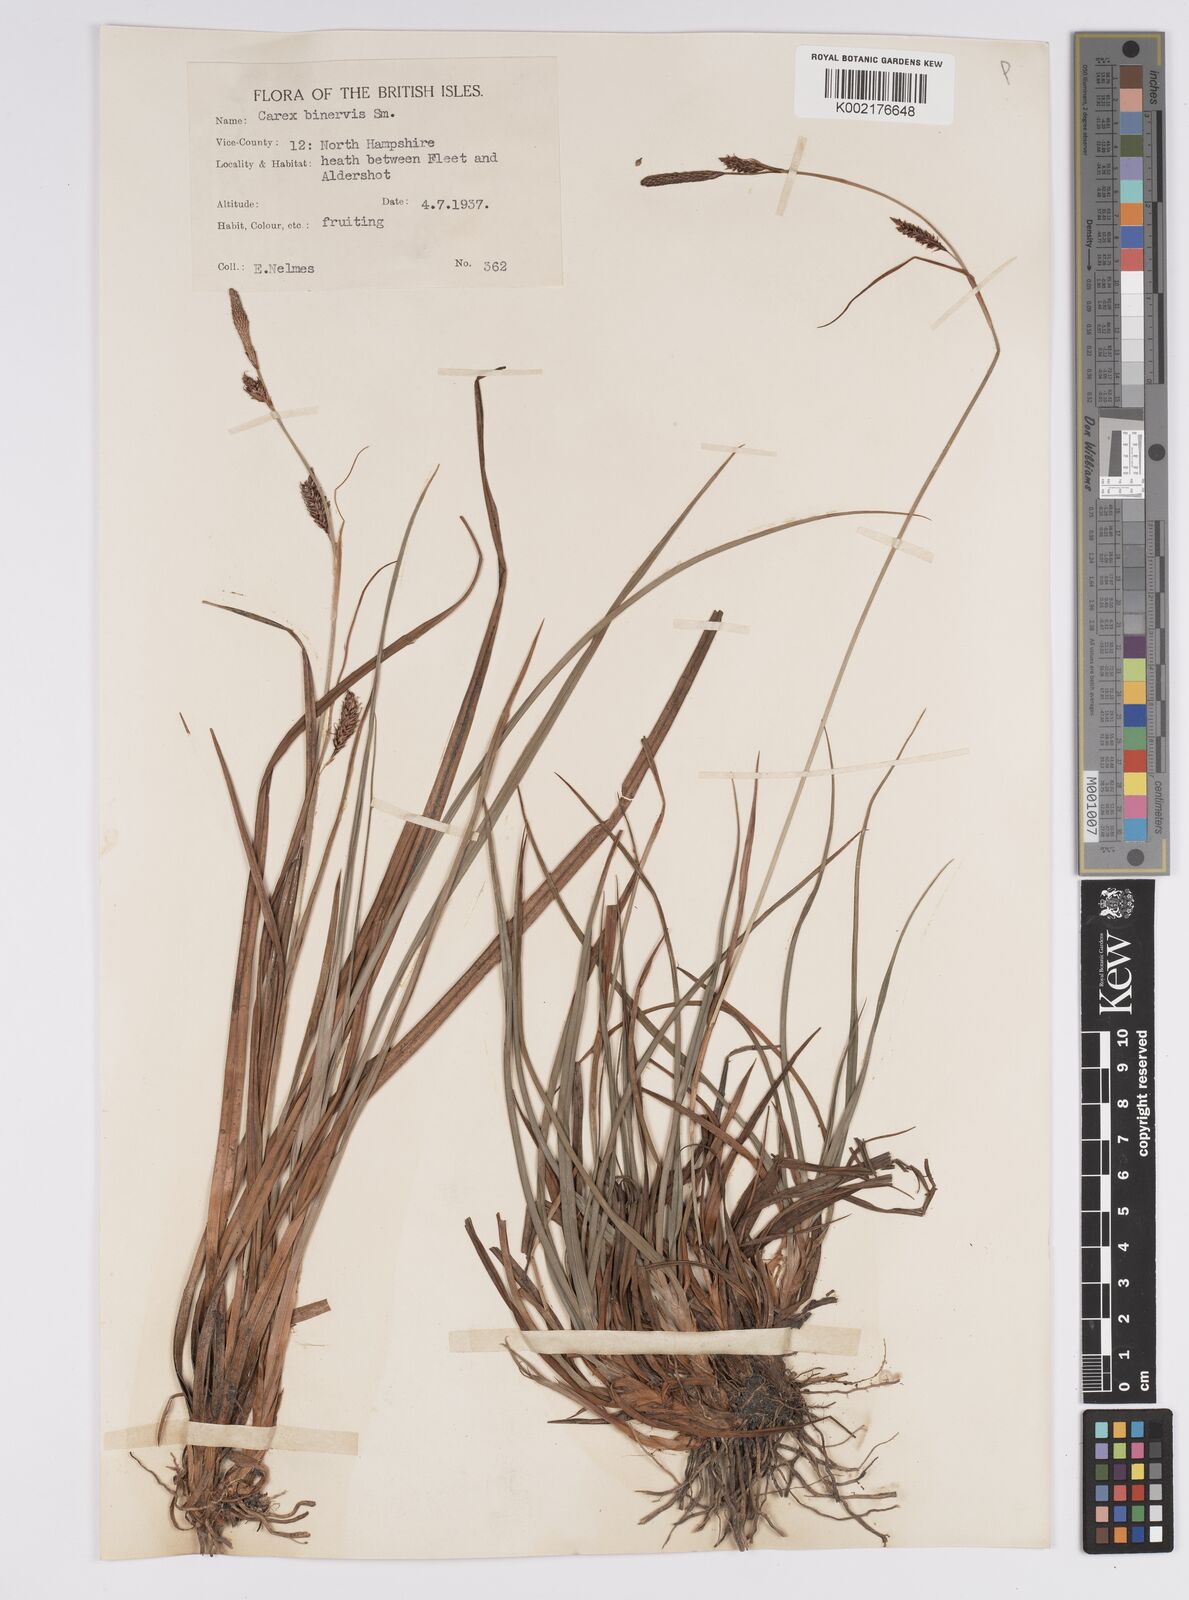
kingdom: Plantae
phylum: Tracheophyta
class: Liliopsida
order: Poales
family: Cyperaceae
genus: Carex
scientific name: Carex binervis
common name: Green-ribbed sedge
